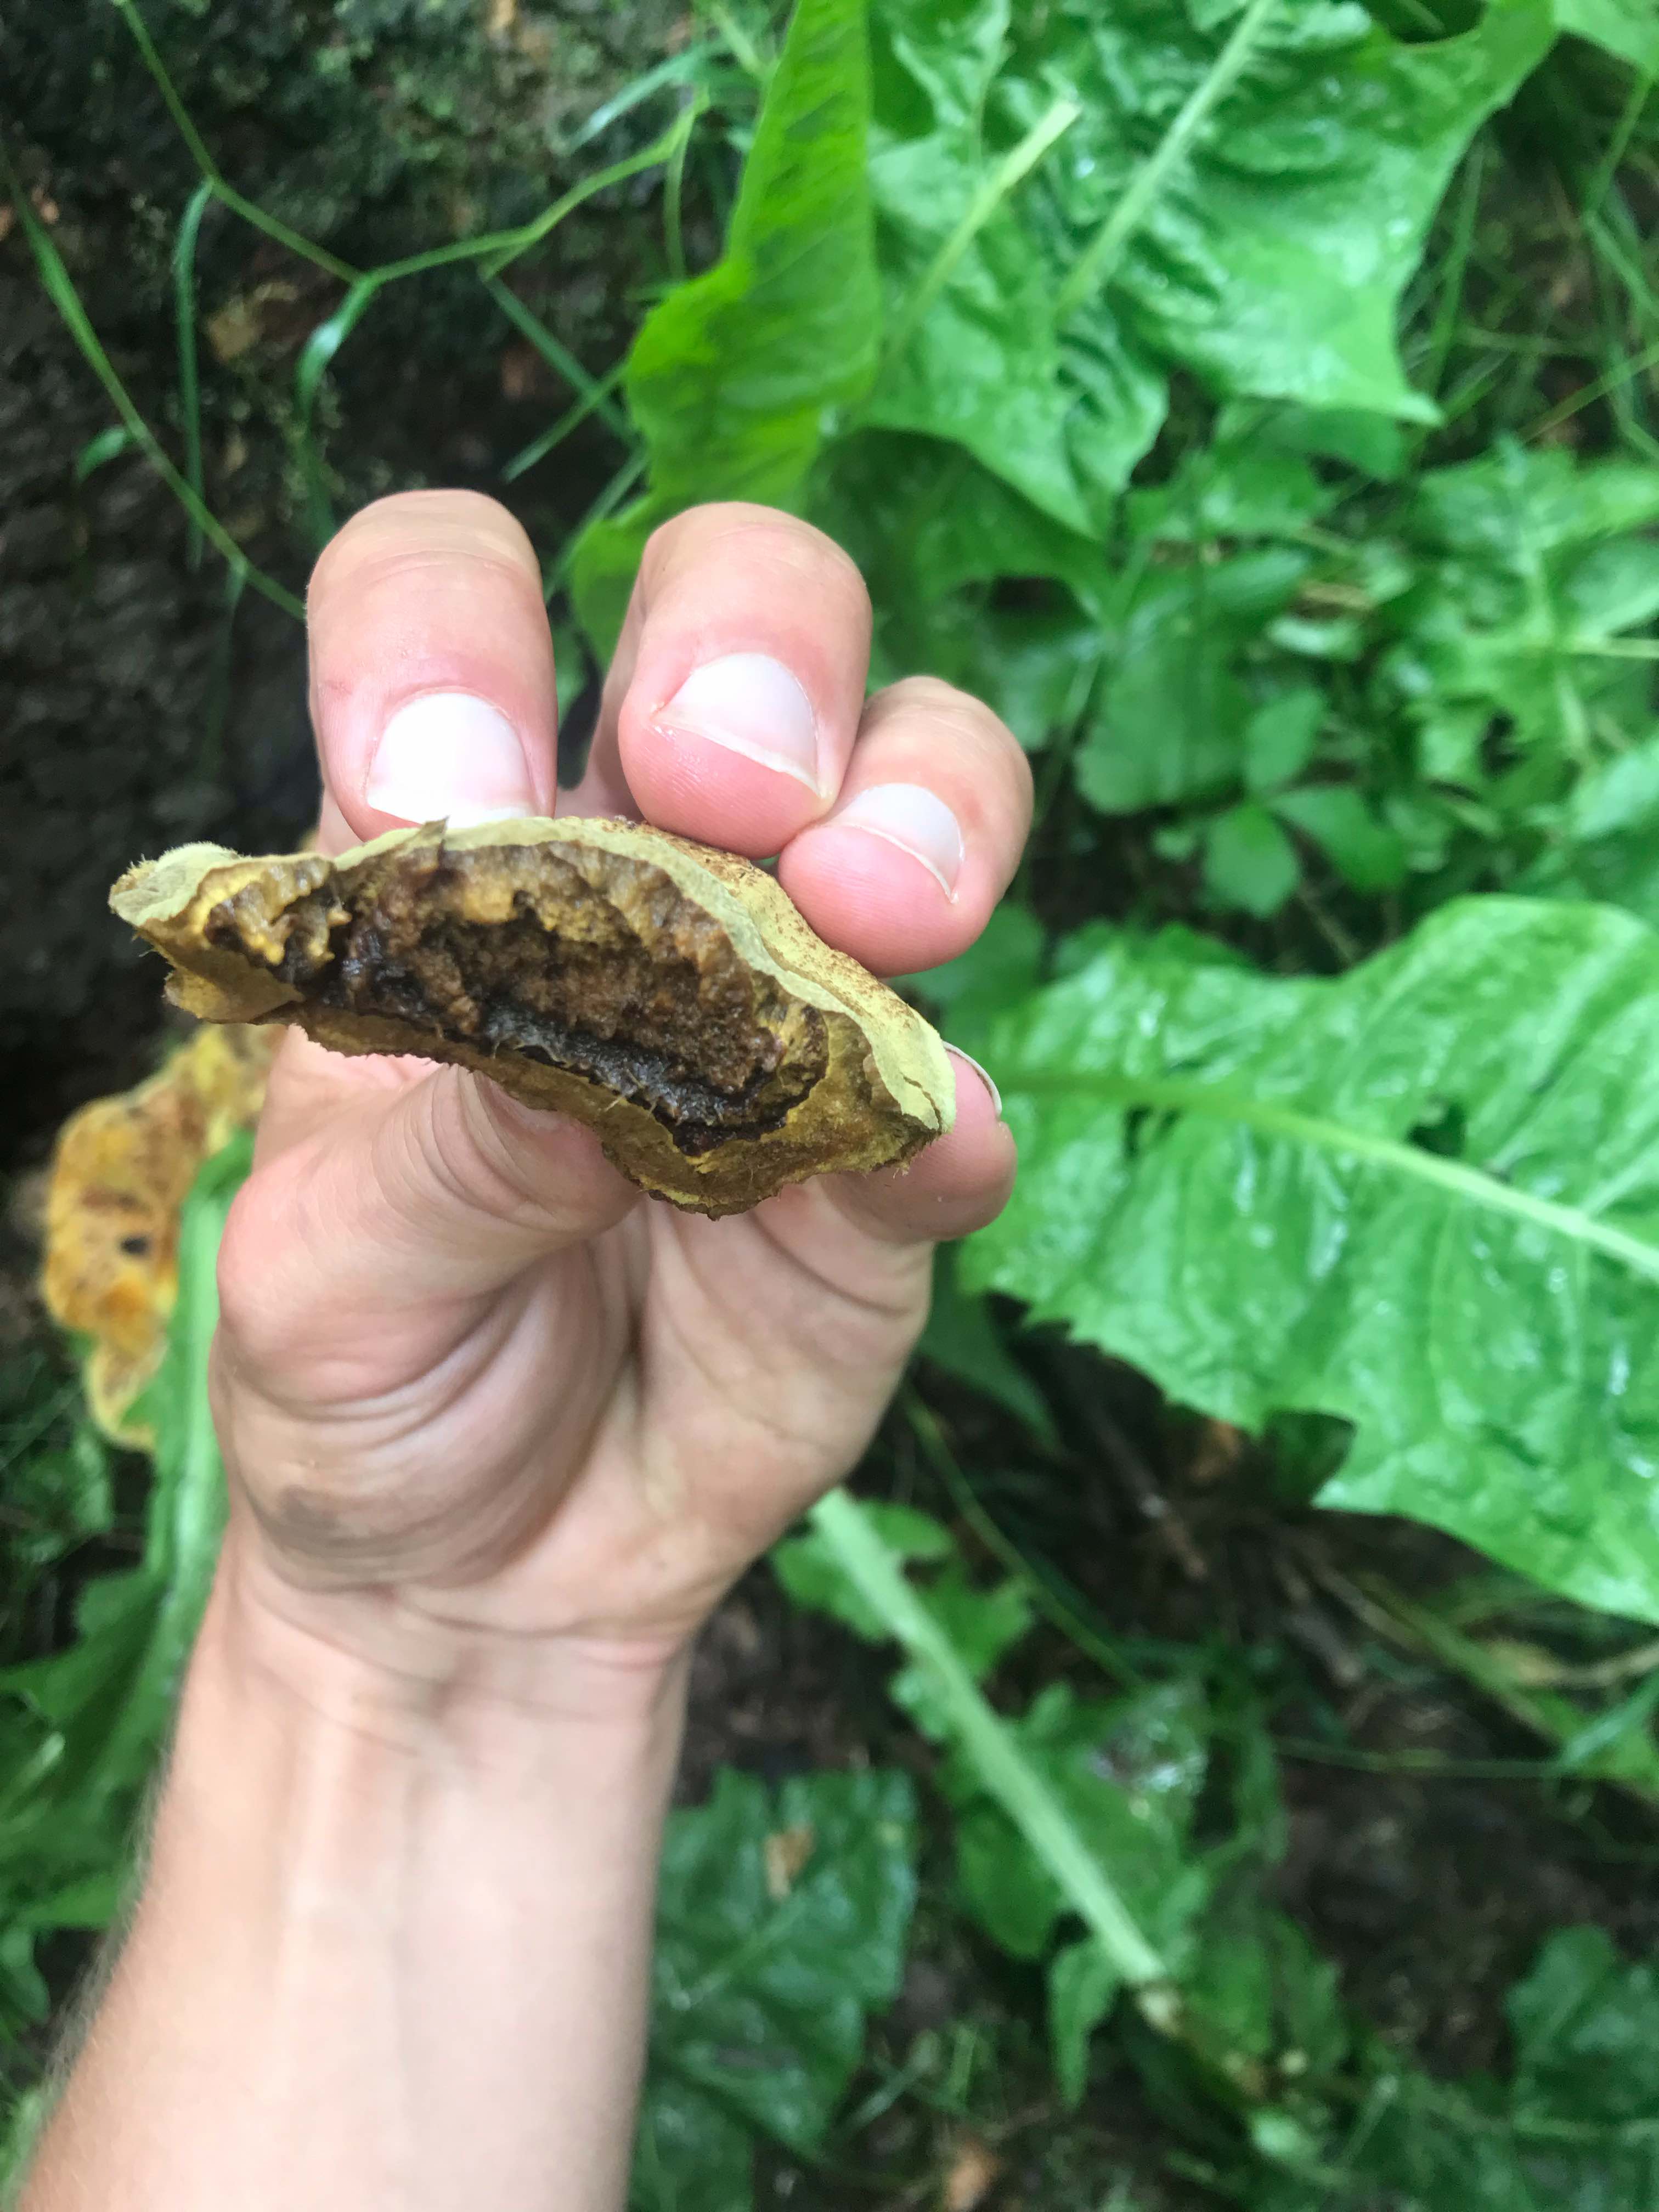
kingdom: Fungi
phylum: Basidiomycota
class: Agaricomycetes
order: Polyporales
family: Laetiporaceae
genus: Phaeolus
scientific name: Phaeolus schweinitzii
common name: brunporesvamp
